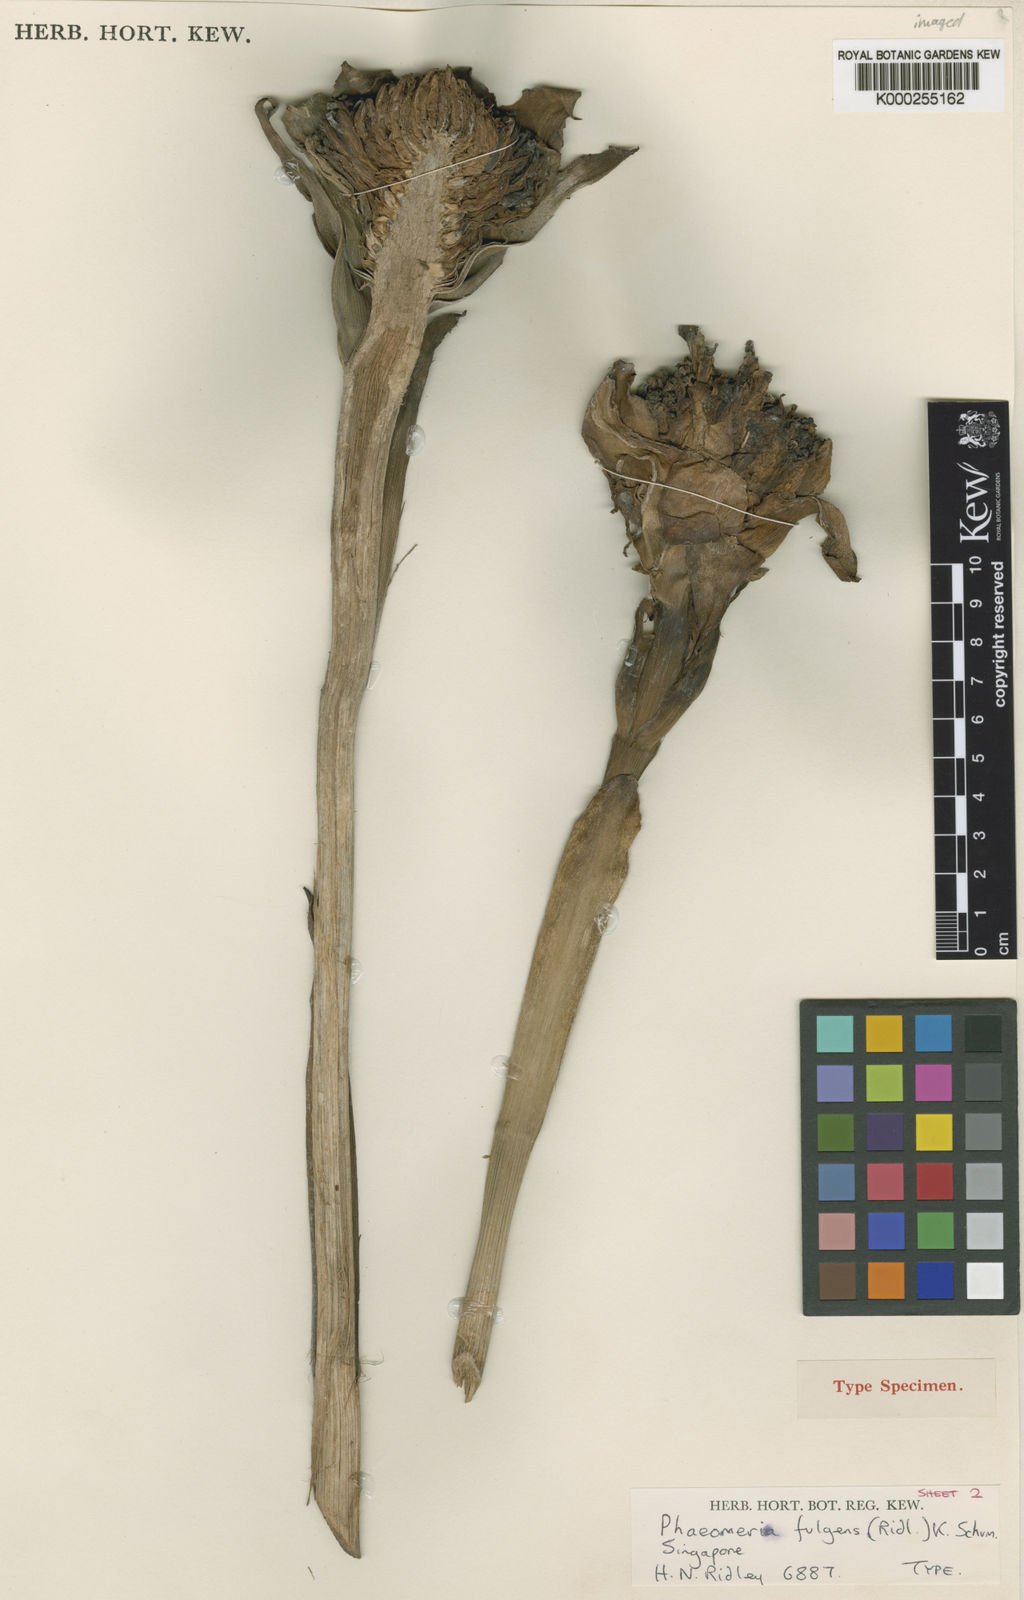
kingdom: Plantae
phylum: Tracheophyta
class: Liliopsida
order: Zingiberales
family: Zingiberaceae
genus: Etlingera
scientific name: Etlingera fulgens
